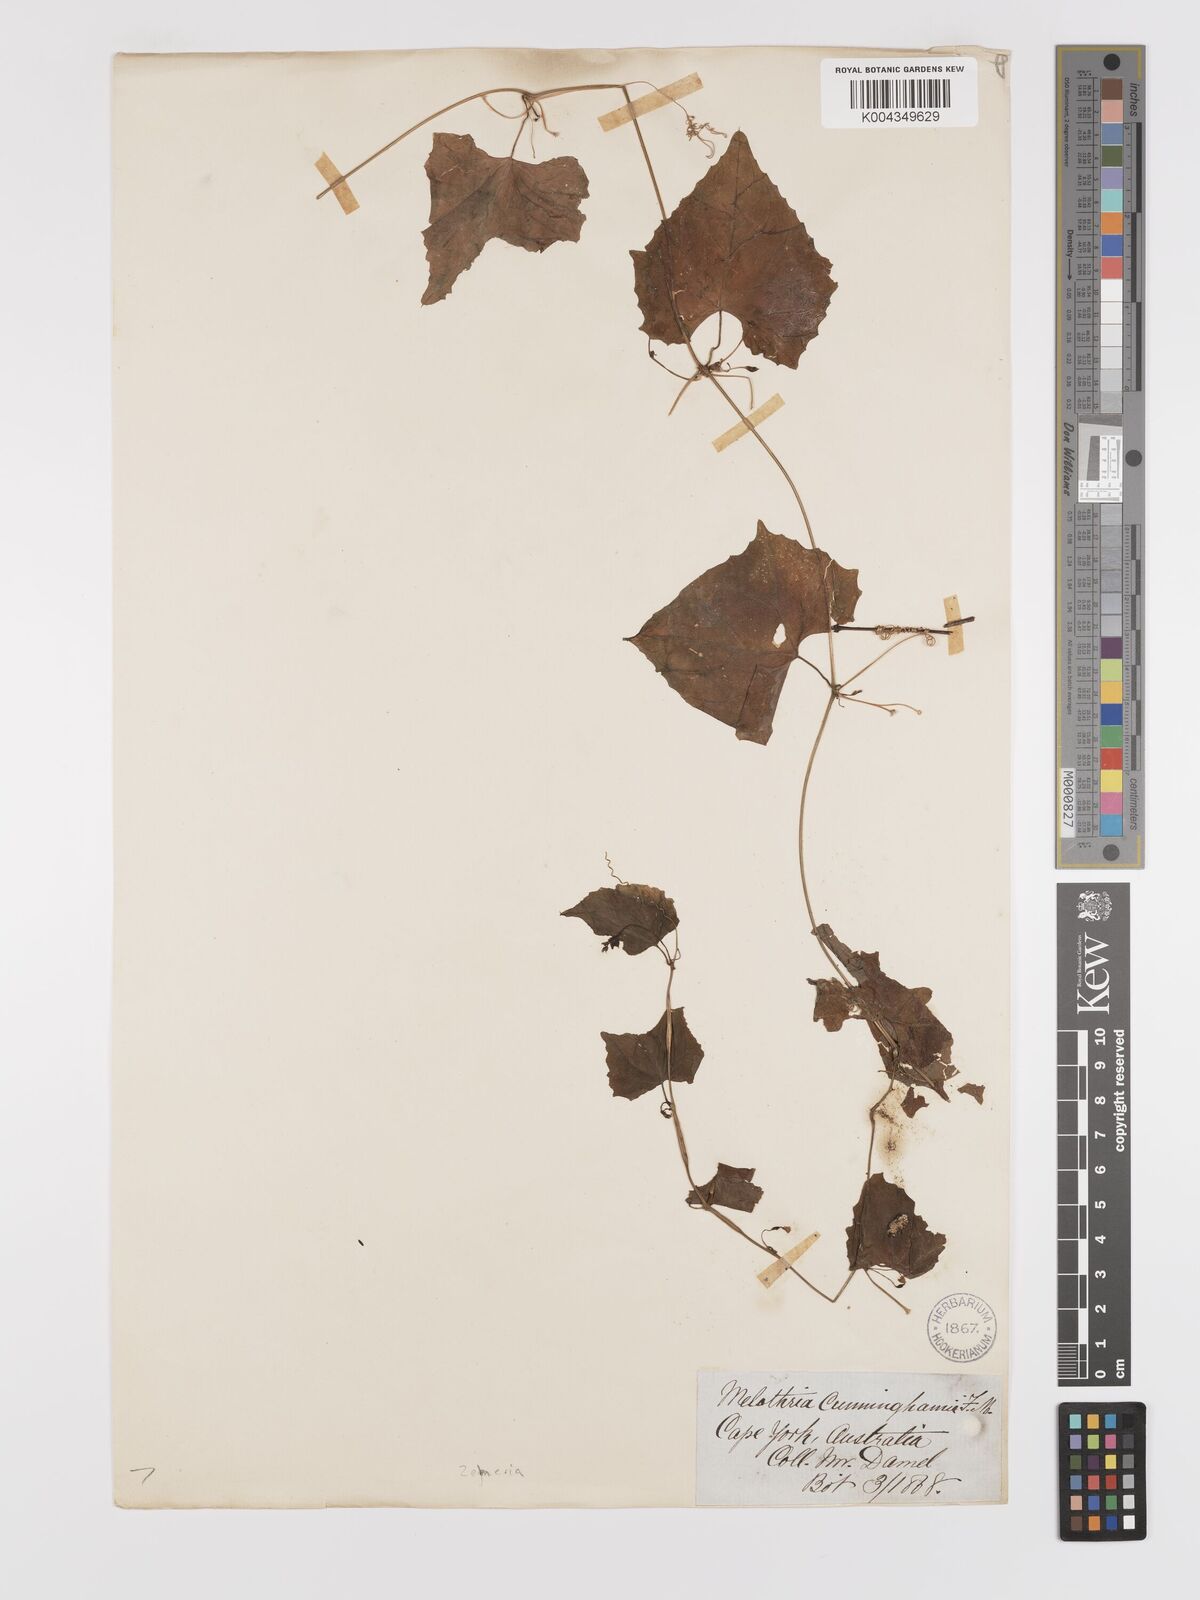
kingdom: Plantae
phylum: Tracheophyta
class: Magnoliopsida
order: Cucurbitales
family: Cucurbitaceae
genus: Zehneria
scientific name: Zehneria cunninghamii
